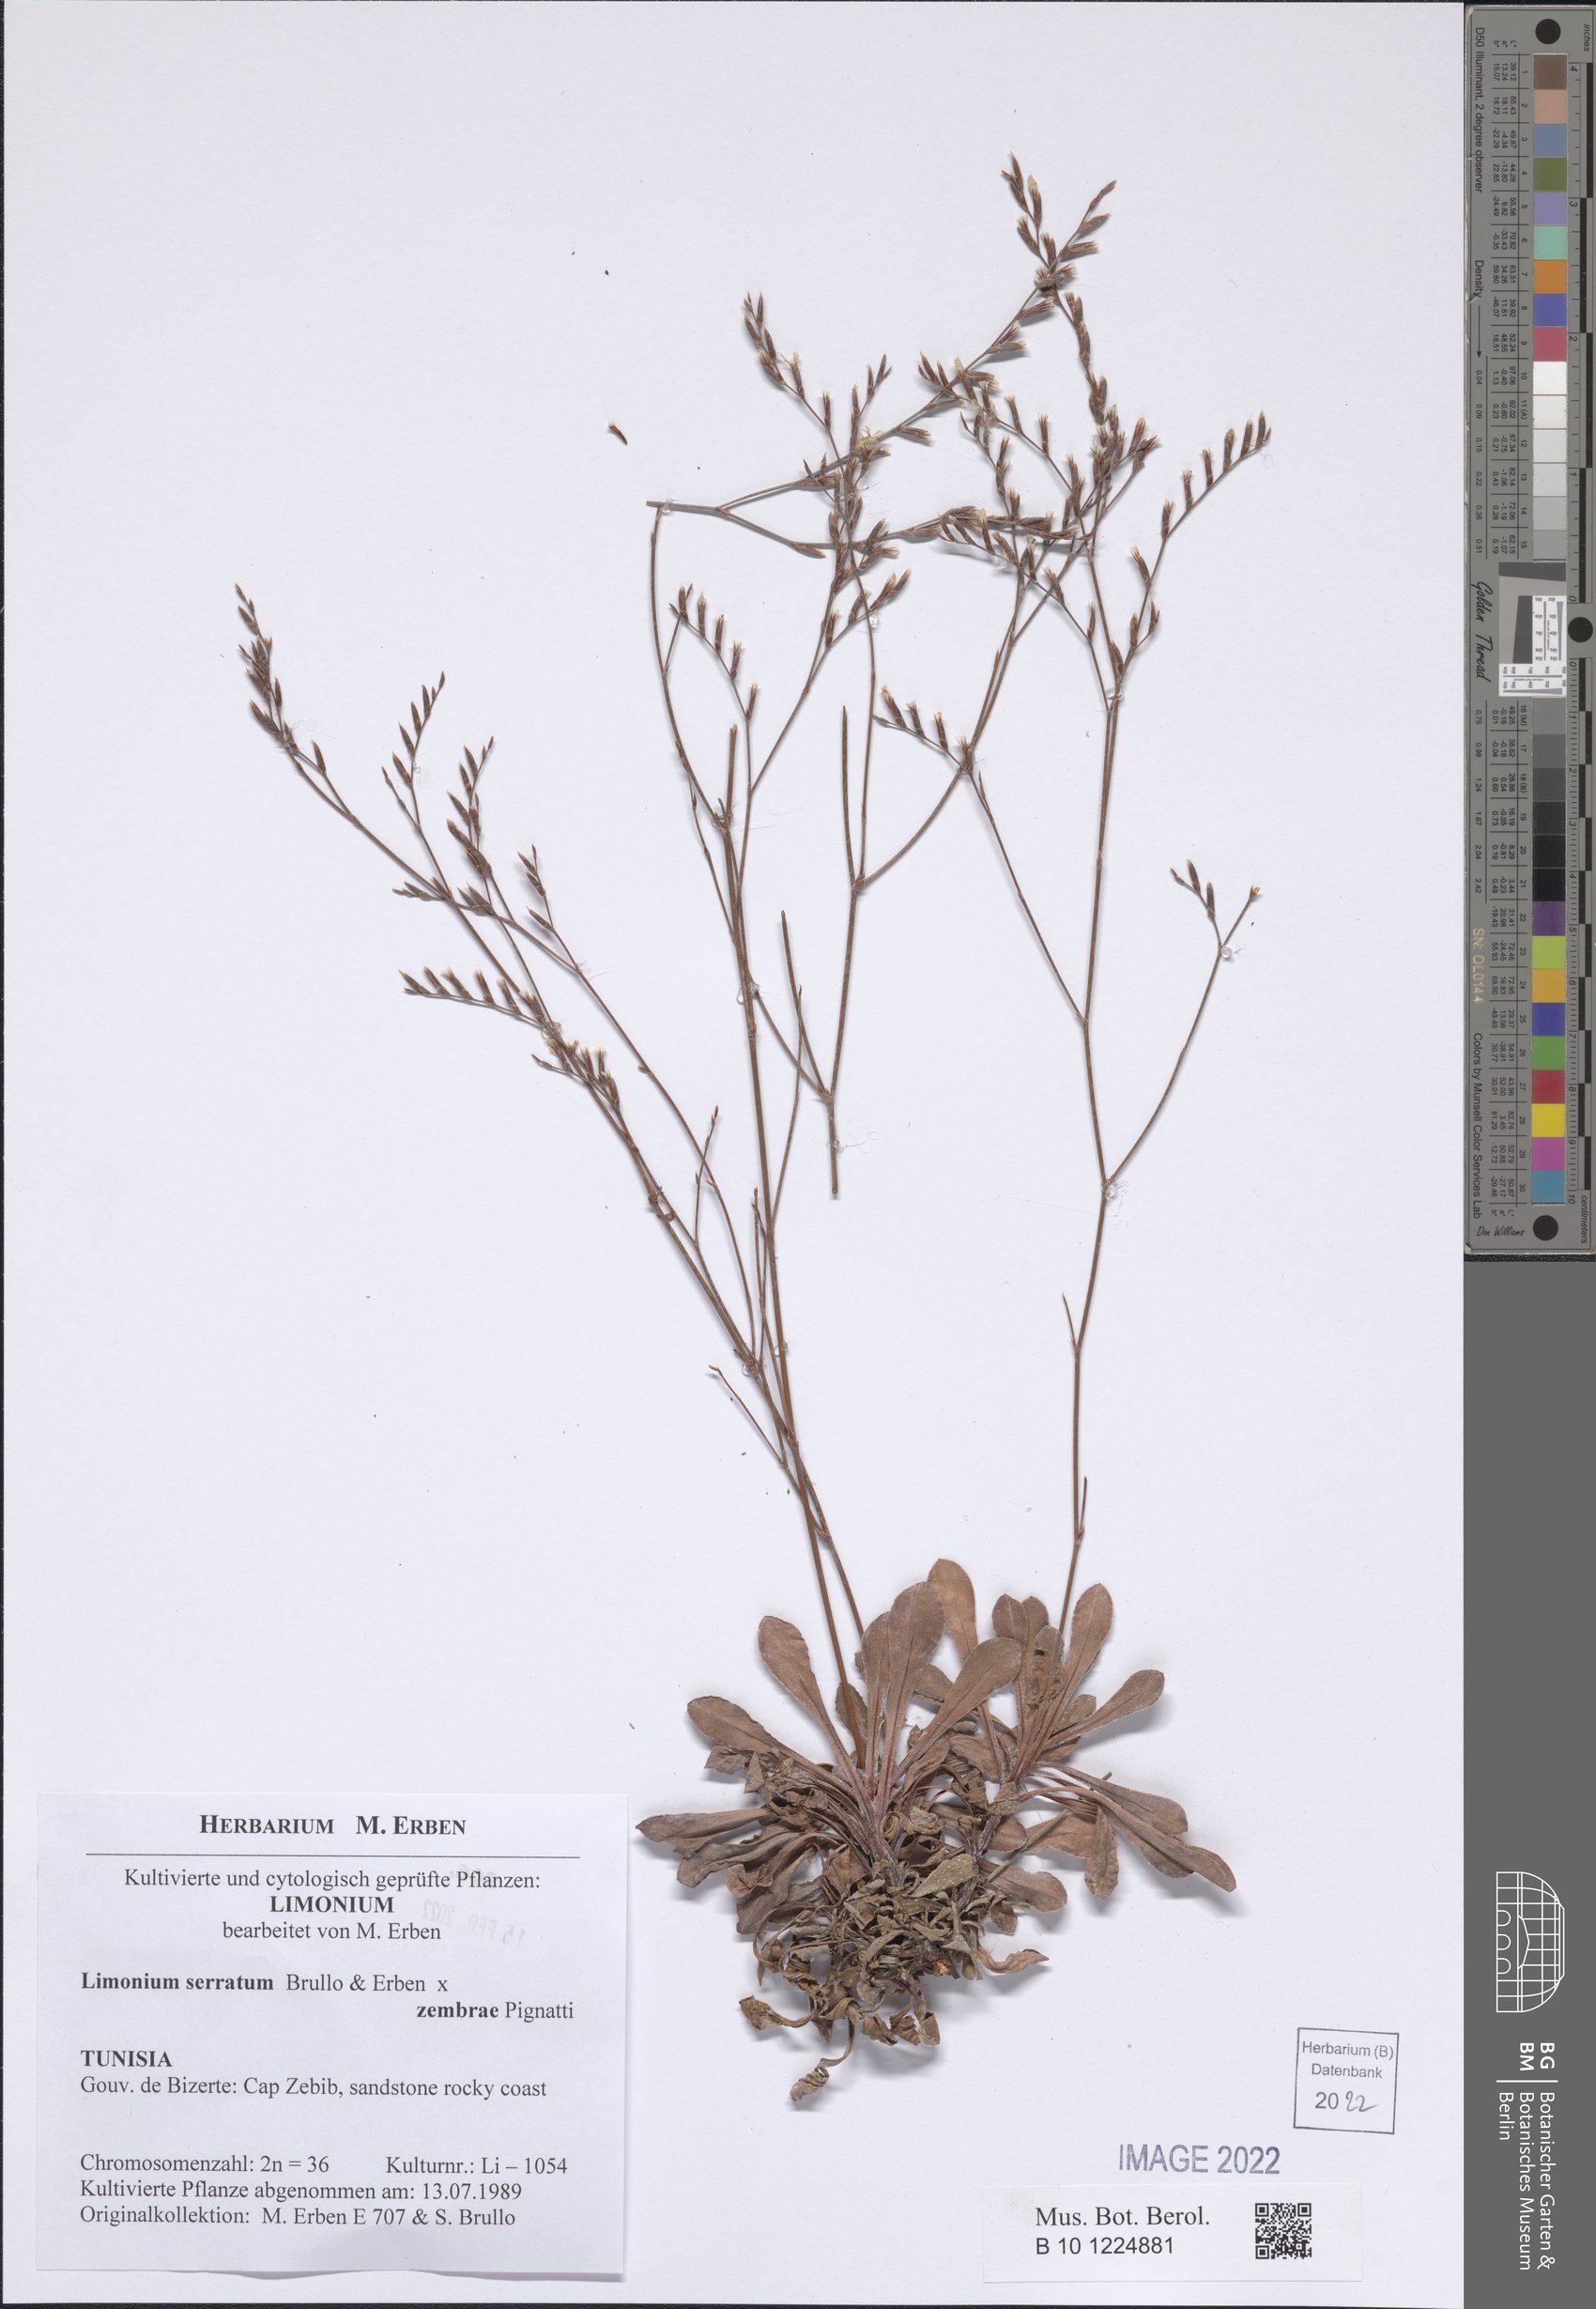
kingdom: Plantae
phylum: Tracheophyta
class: Magnoliopsida
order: Caryophyllales
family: Plumbaginaceae
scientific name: Plumbaginaceae
